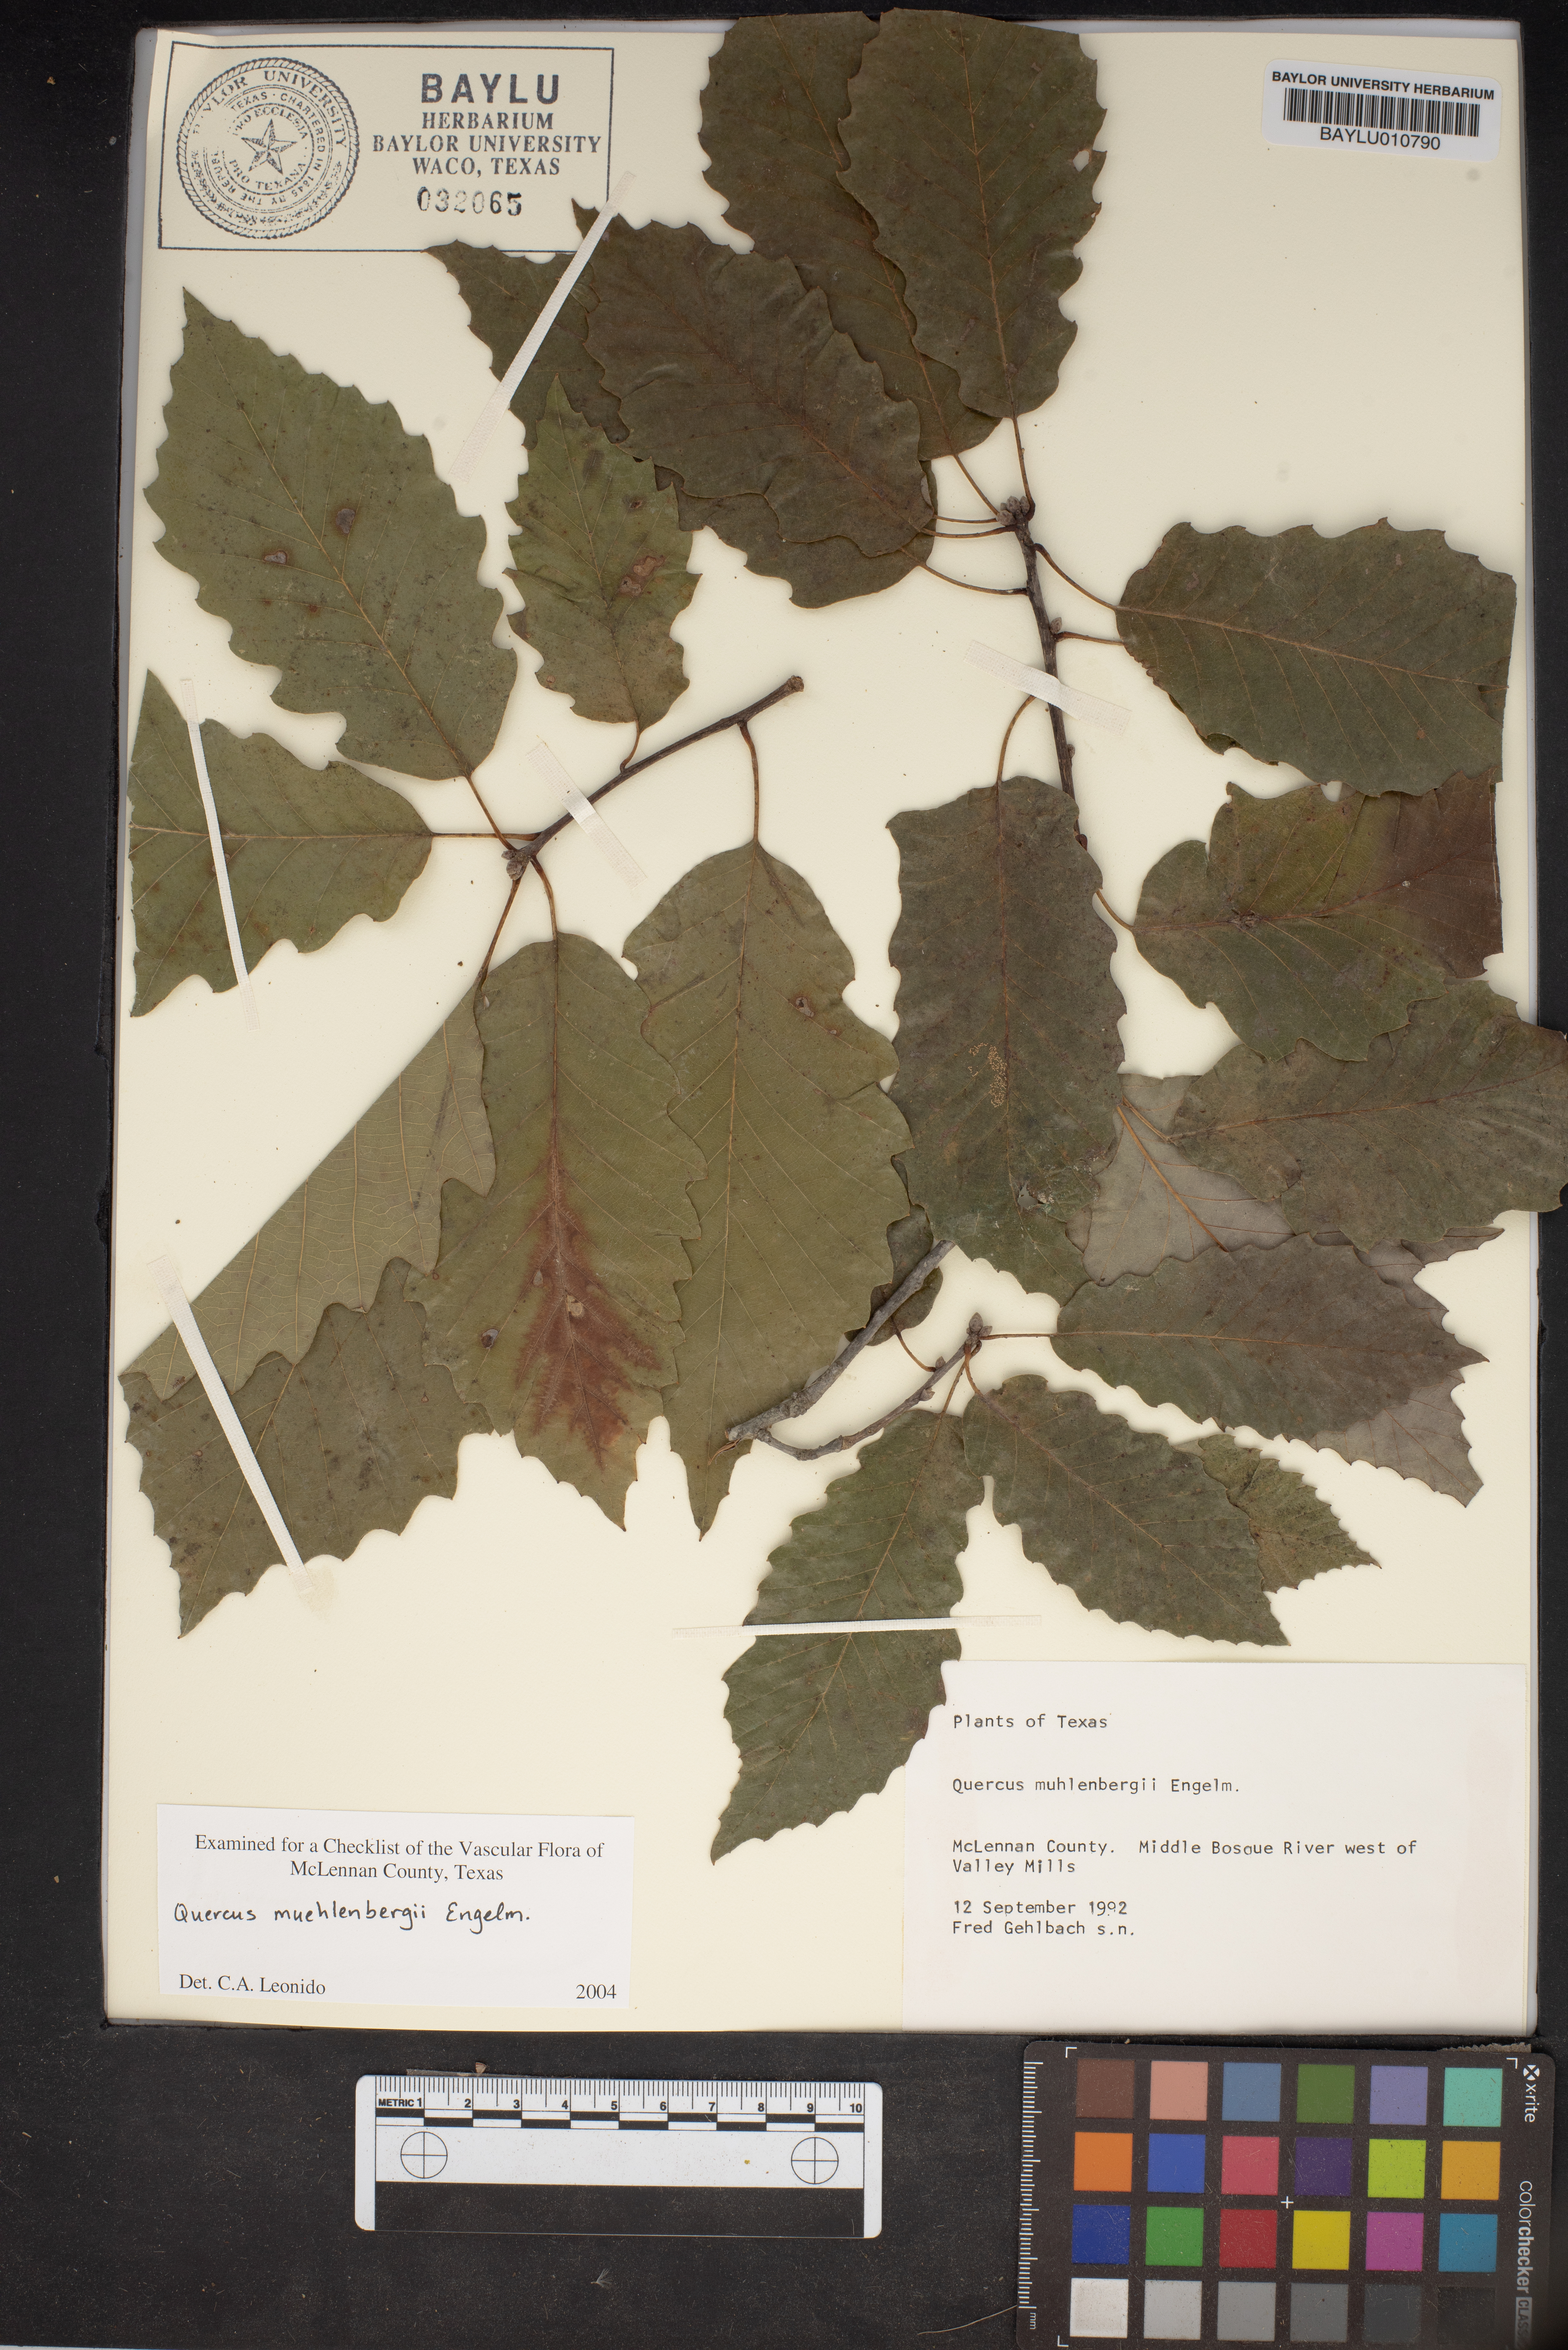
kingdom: Plantae
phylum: Tracheophyta
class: Magnoliopsida
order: Fagales
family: Fagaceae
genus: Quercus
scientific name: Quercus muehlenbergii
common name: Chinkapin oak
